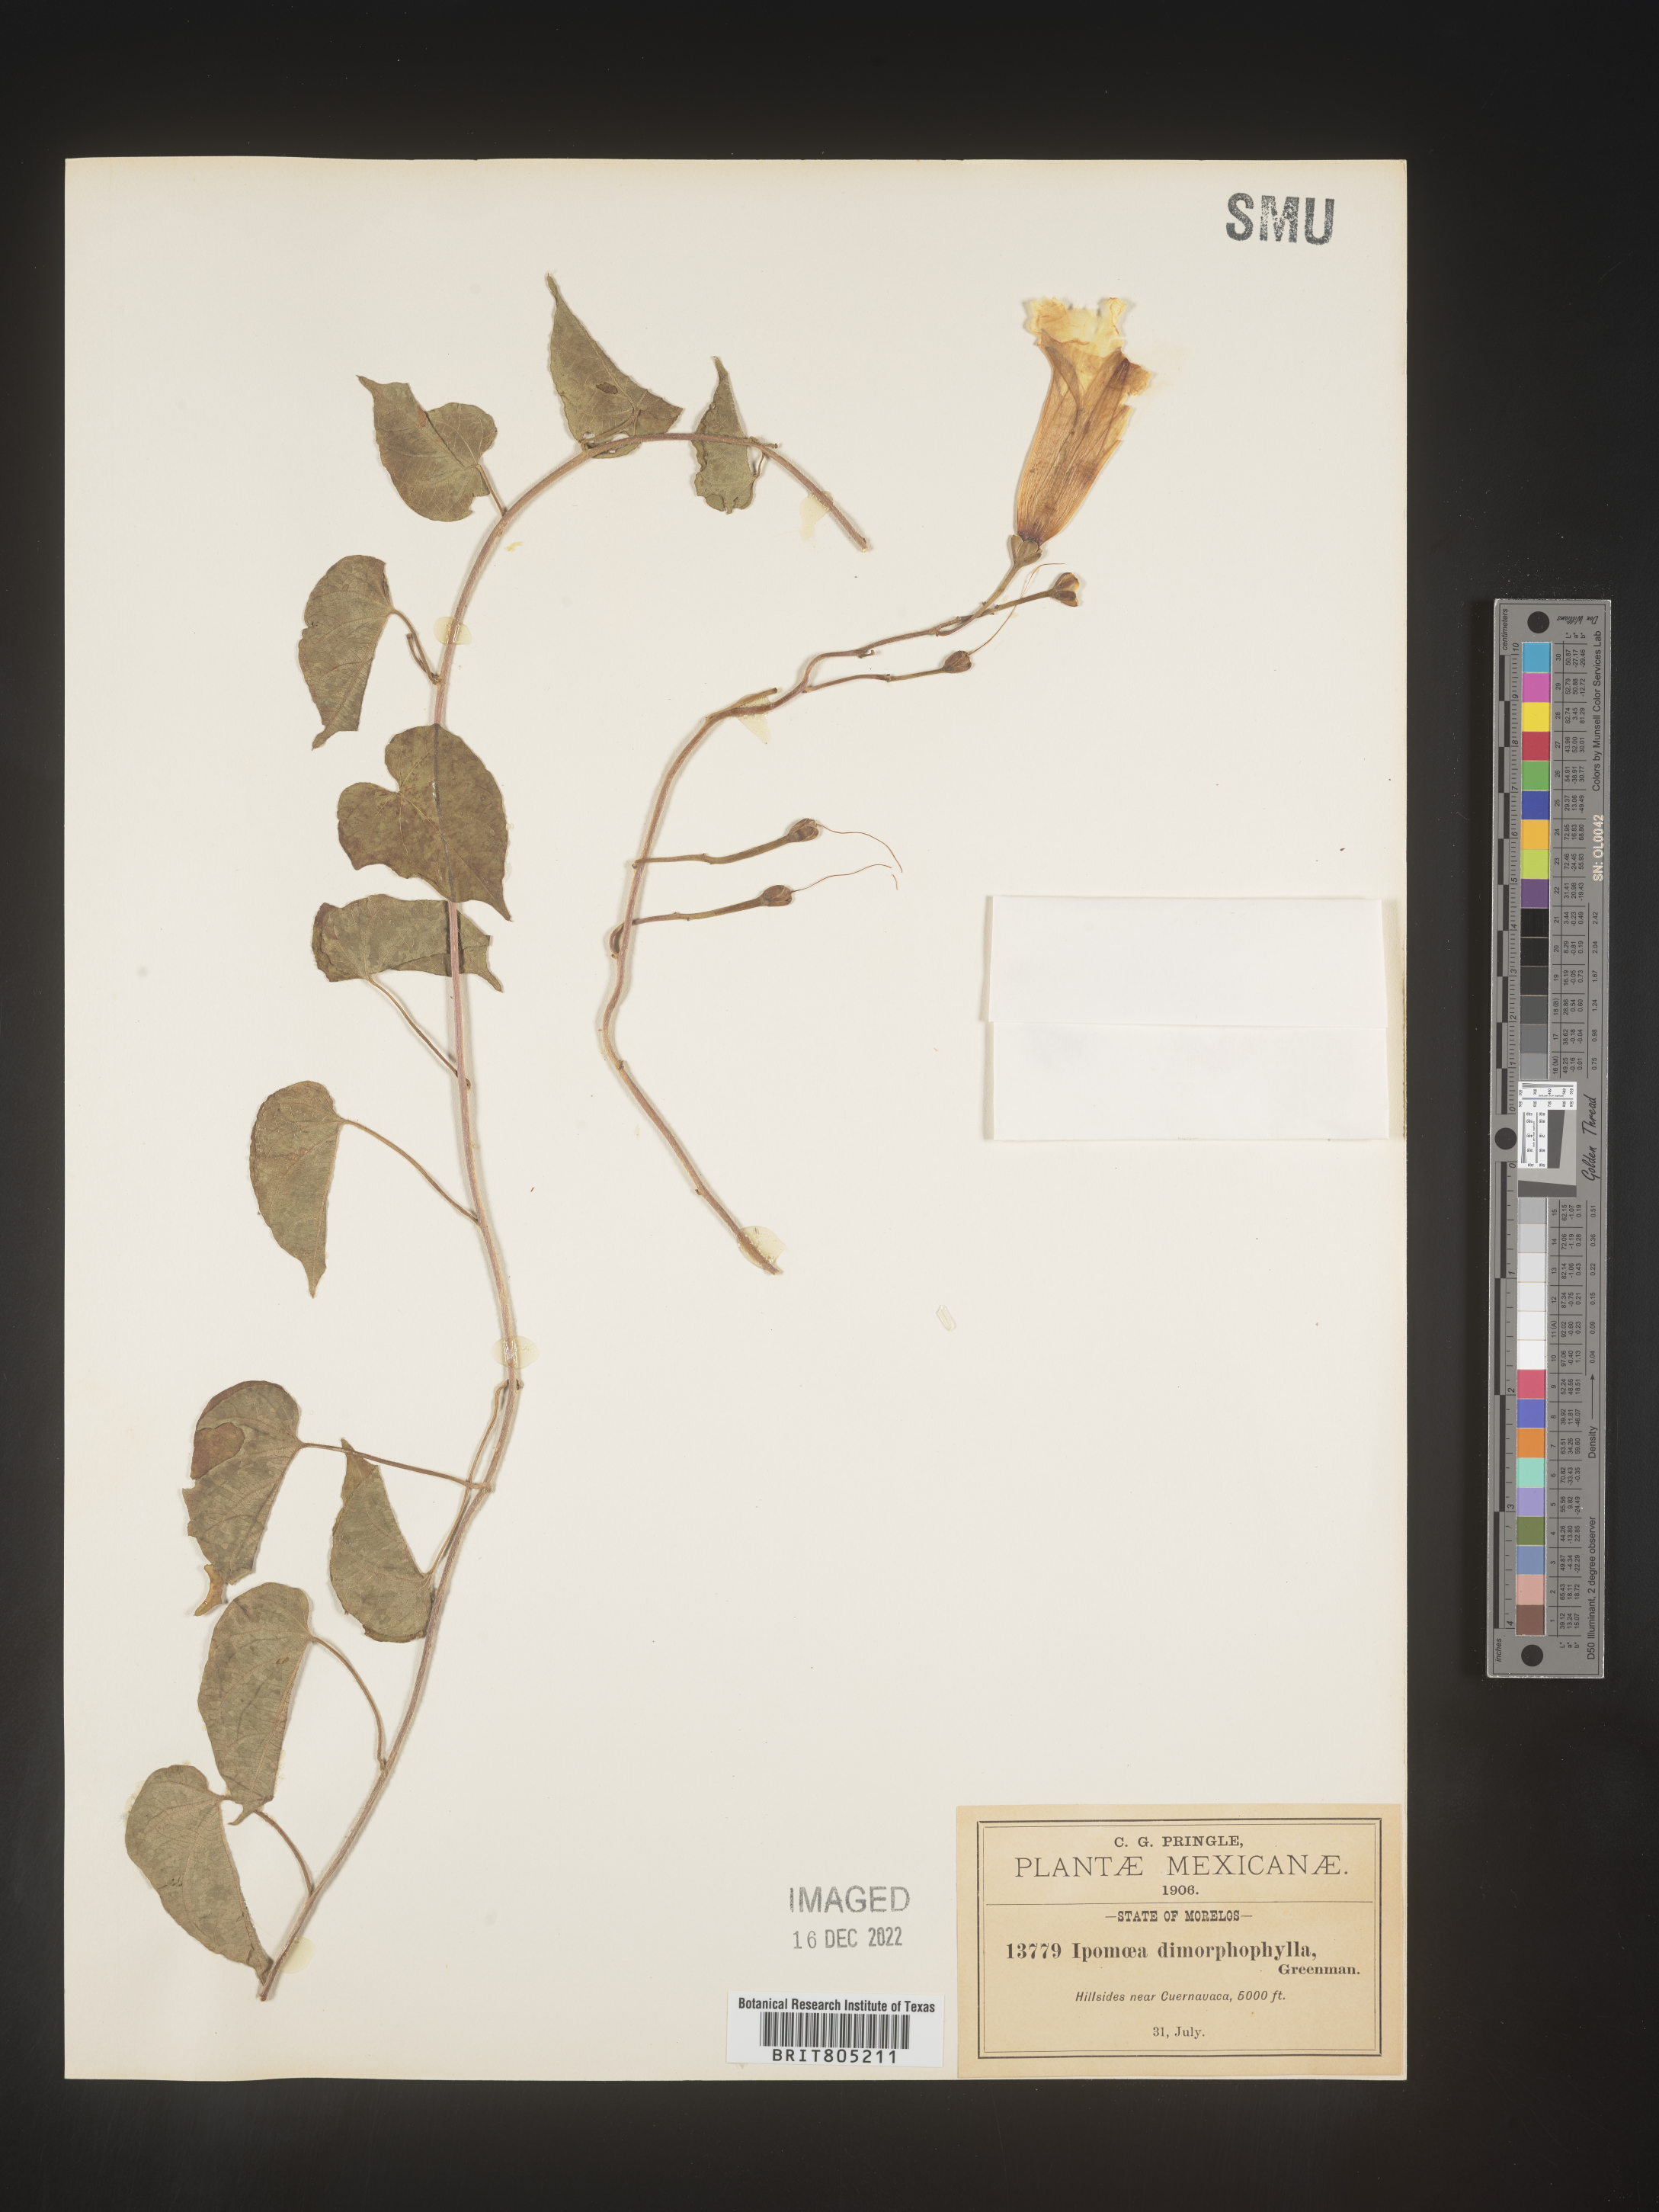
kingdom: Plantae
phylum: Tracheophyta
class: Magnoliopsida
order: Solanales
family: Convolvulaceae
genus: Ipomoea
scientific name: Ipomoea
